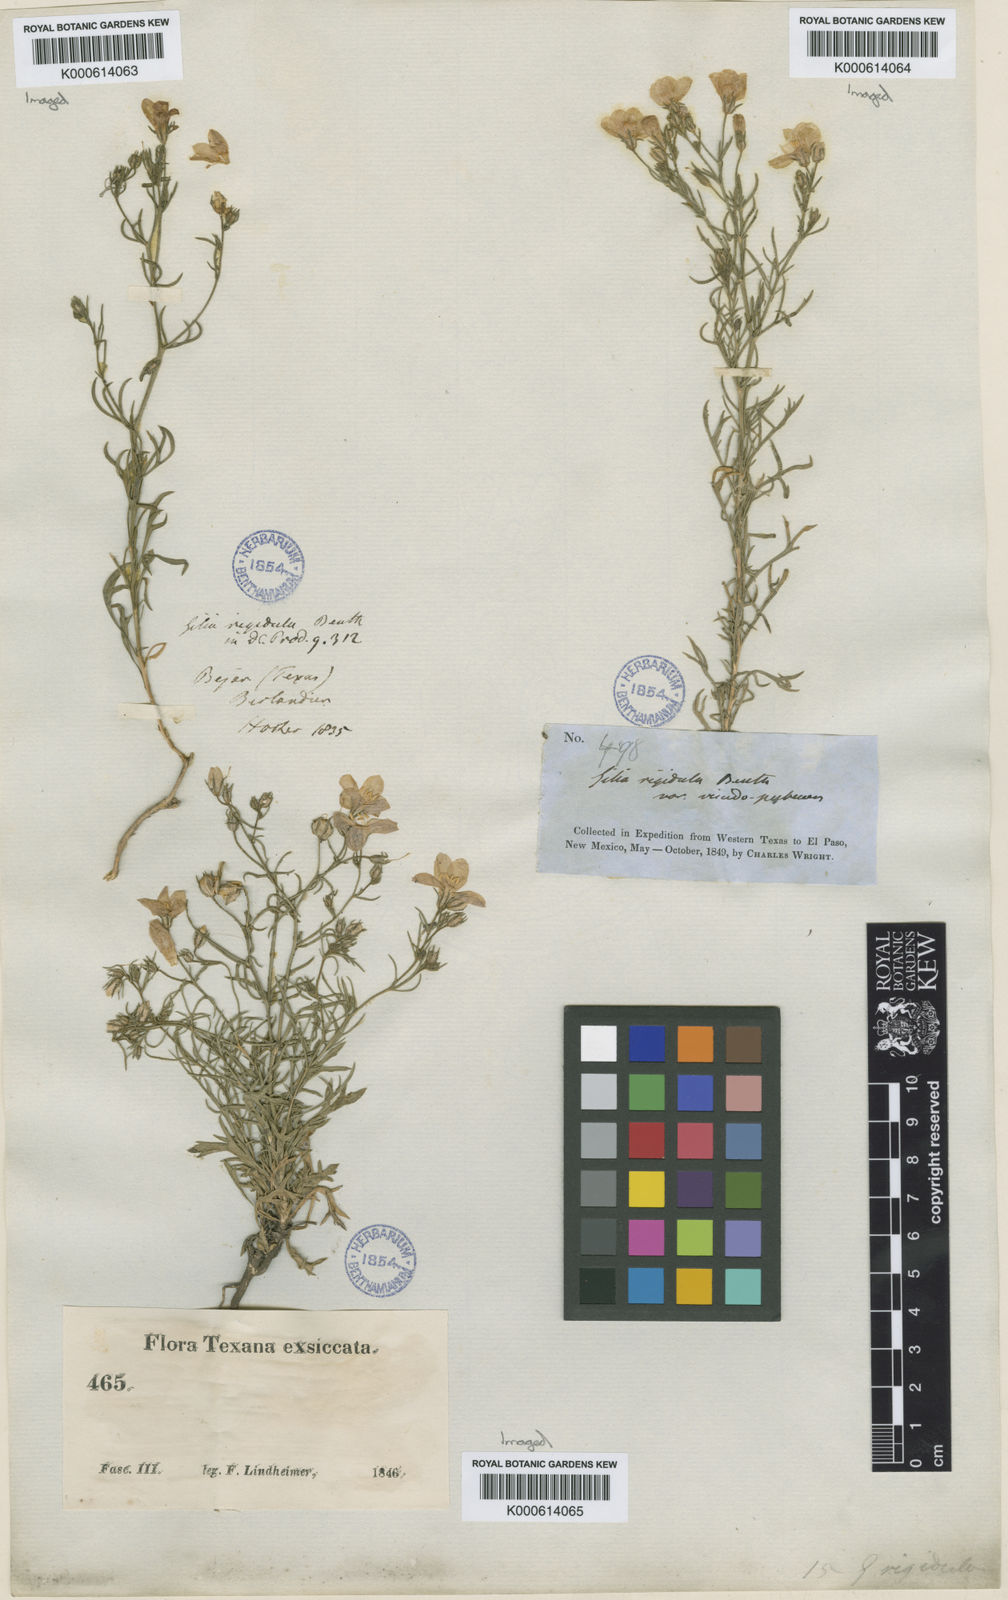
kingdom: Plantae
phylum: Tracheophyta
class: Magnoliopsida
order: Ericales
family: Polemoniaceae
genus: Giliastrum
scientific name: Giliastrum rigidulum
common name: Bluebowls
